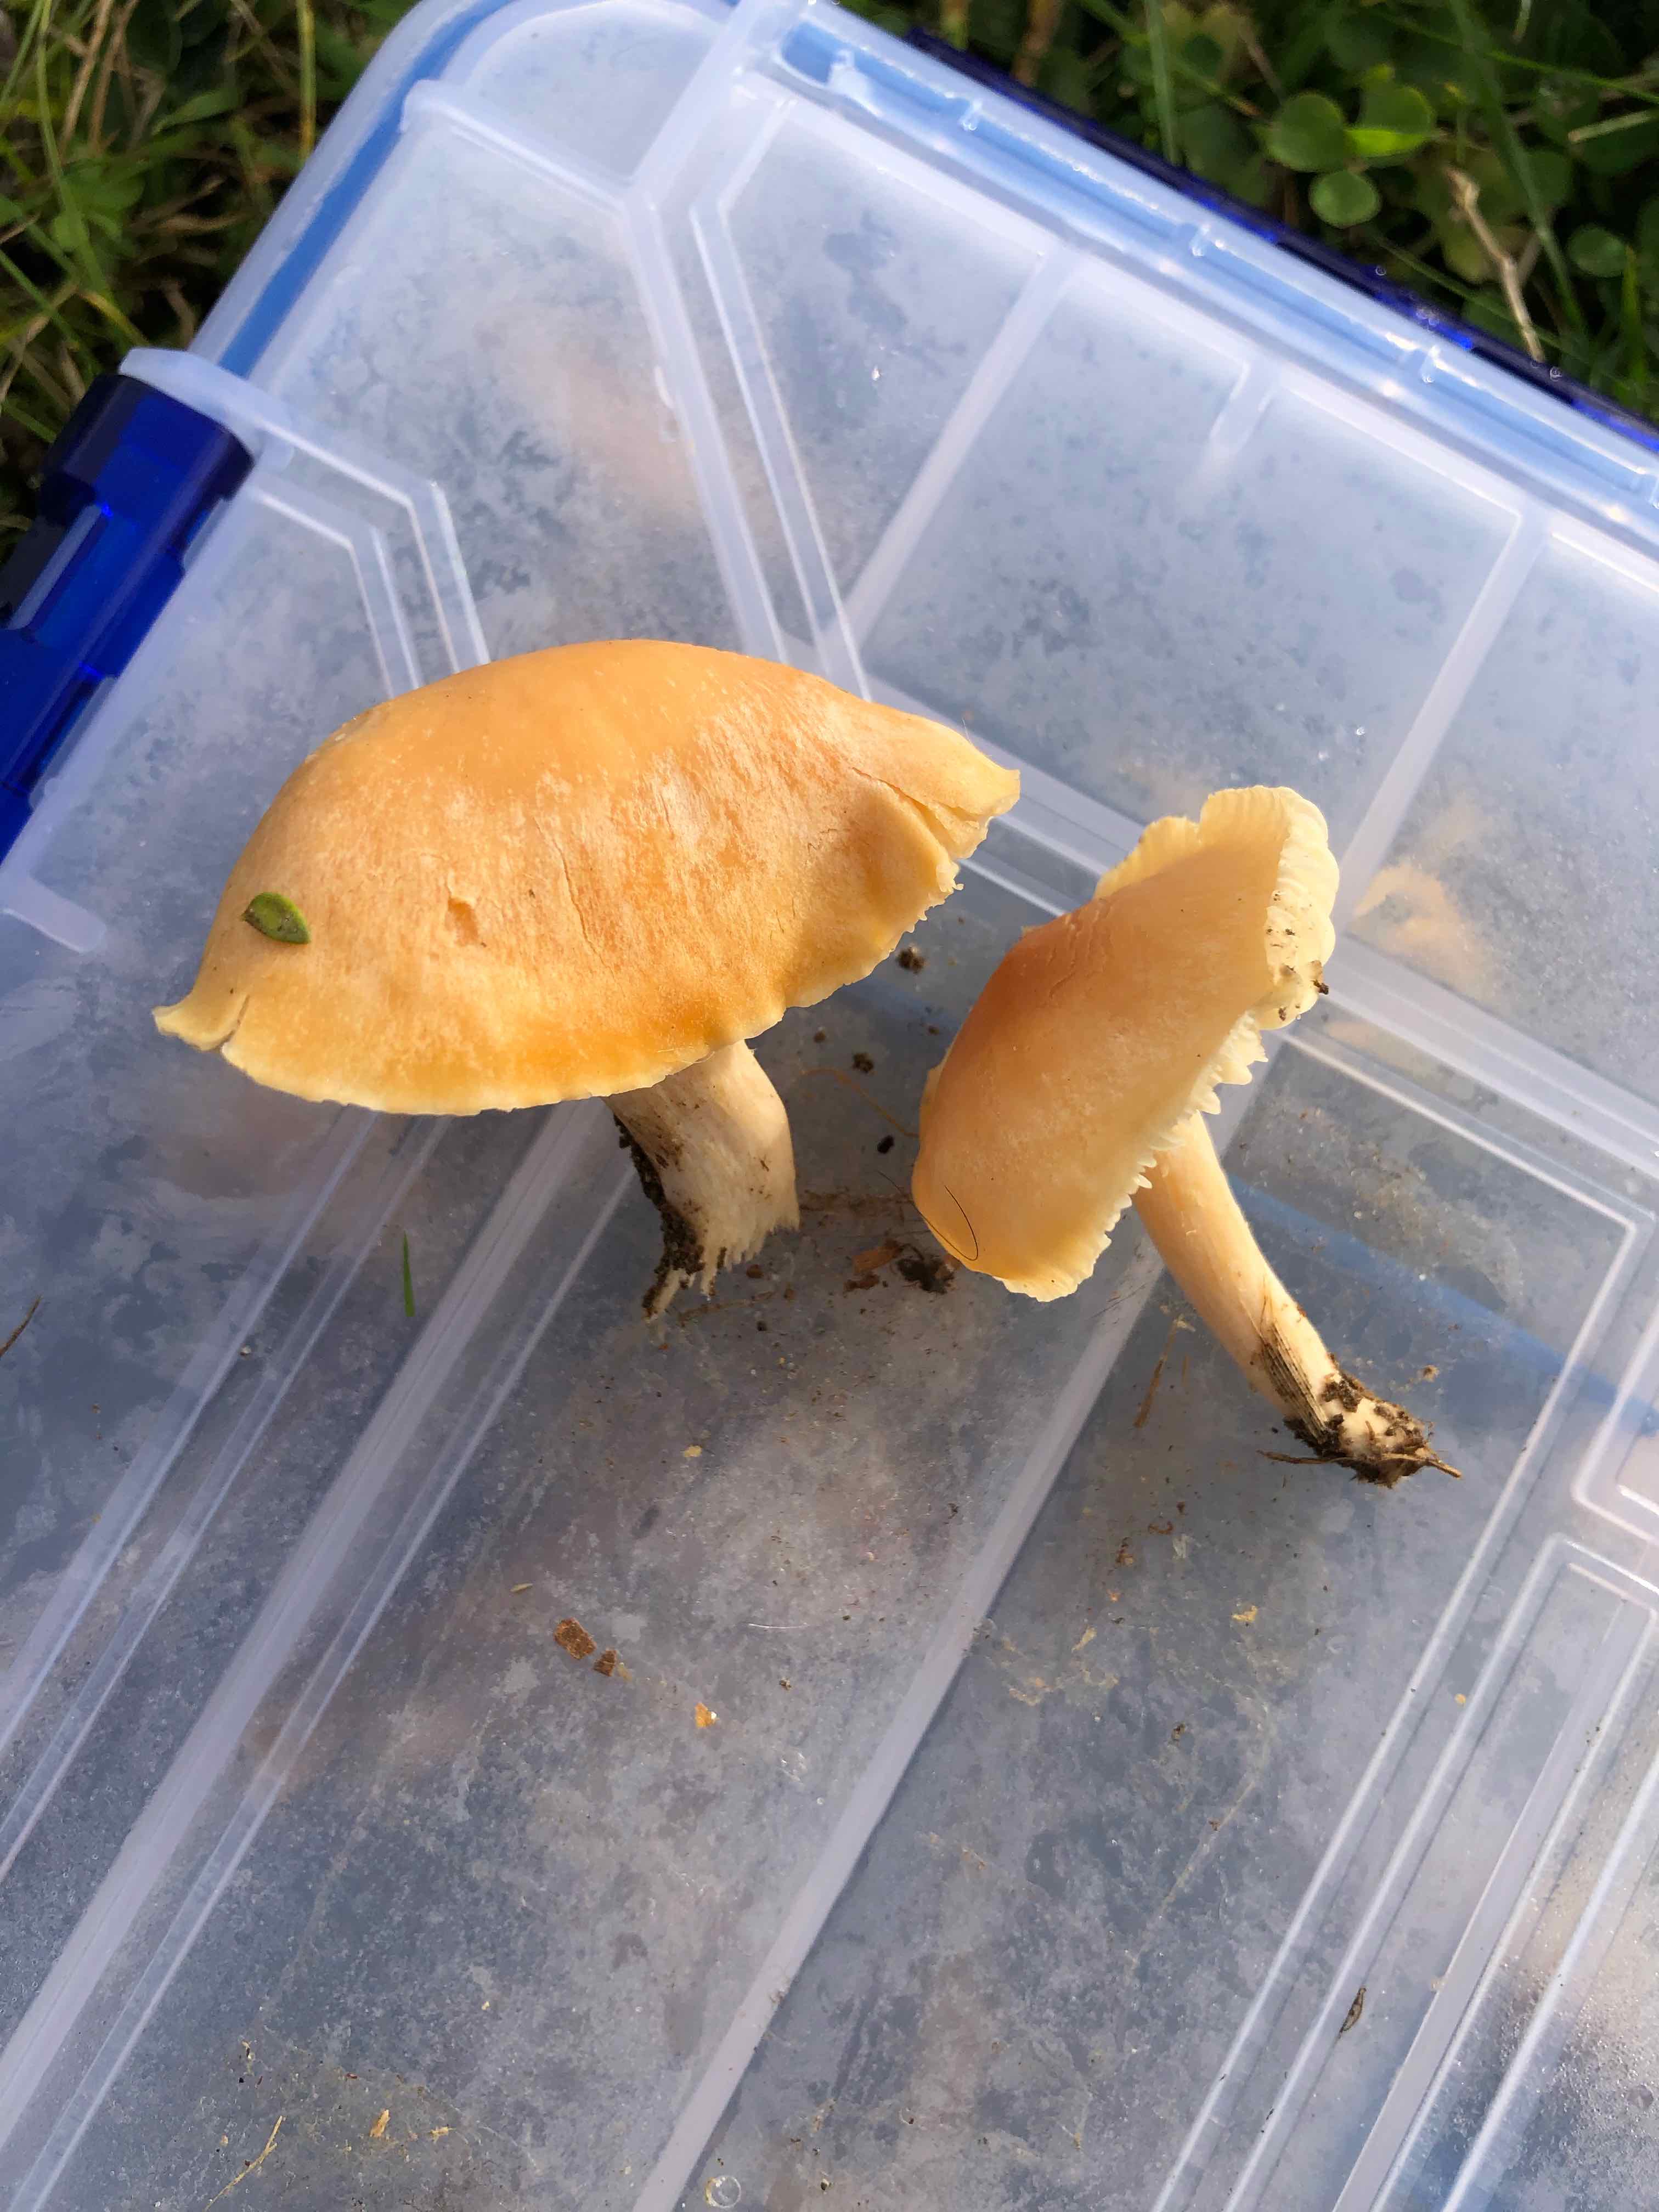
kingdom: Fungi
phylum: Basidiomycota
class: Agaricomycetes
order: Agaricales
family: Hygrophoraceae
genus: Cuphophyllus
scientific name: Cuphophyllus pratensis
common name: eng-vokshat
